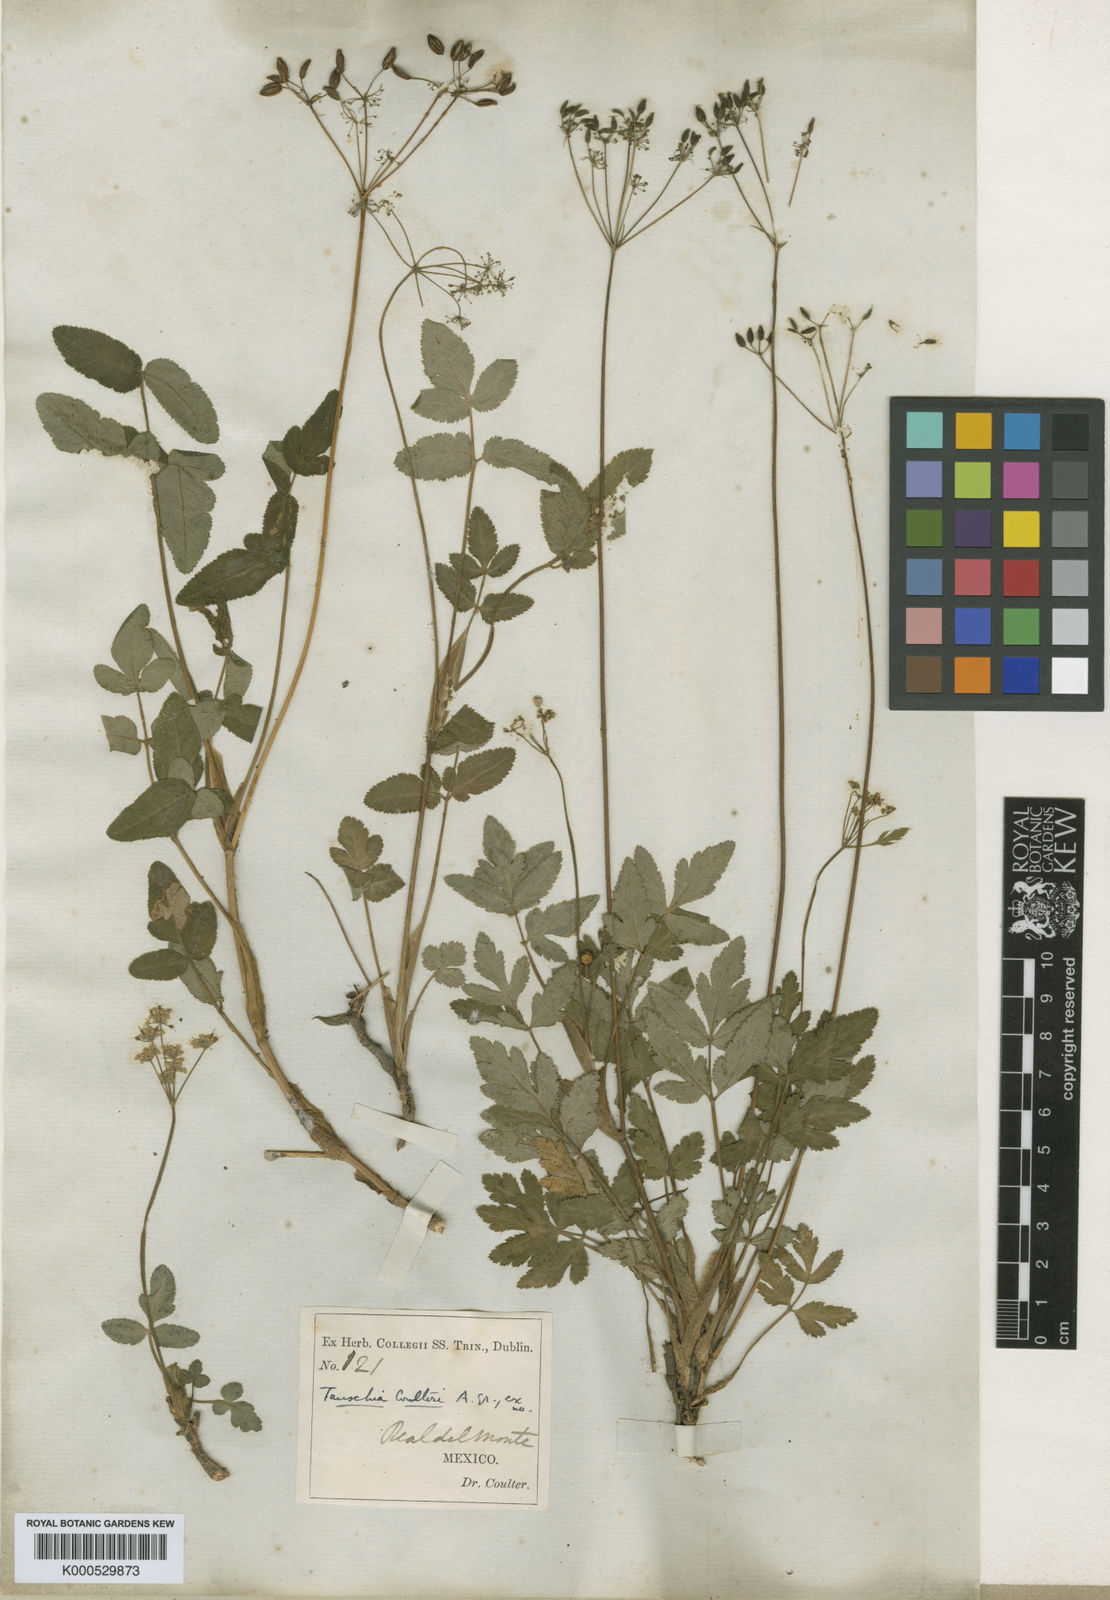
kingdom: Plantae
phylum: Tracheophyta
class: Magnoliopsida
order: Apiales
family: Apiaceae
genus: Arracacia
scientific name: Arracacia aegopodioides
